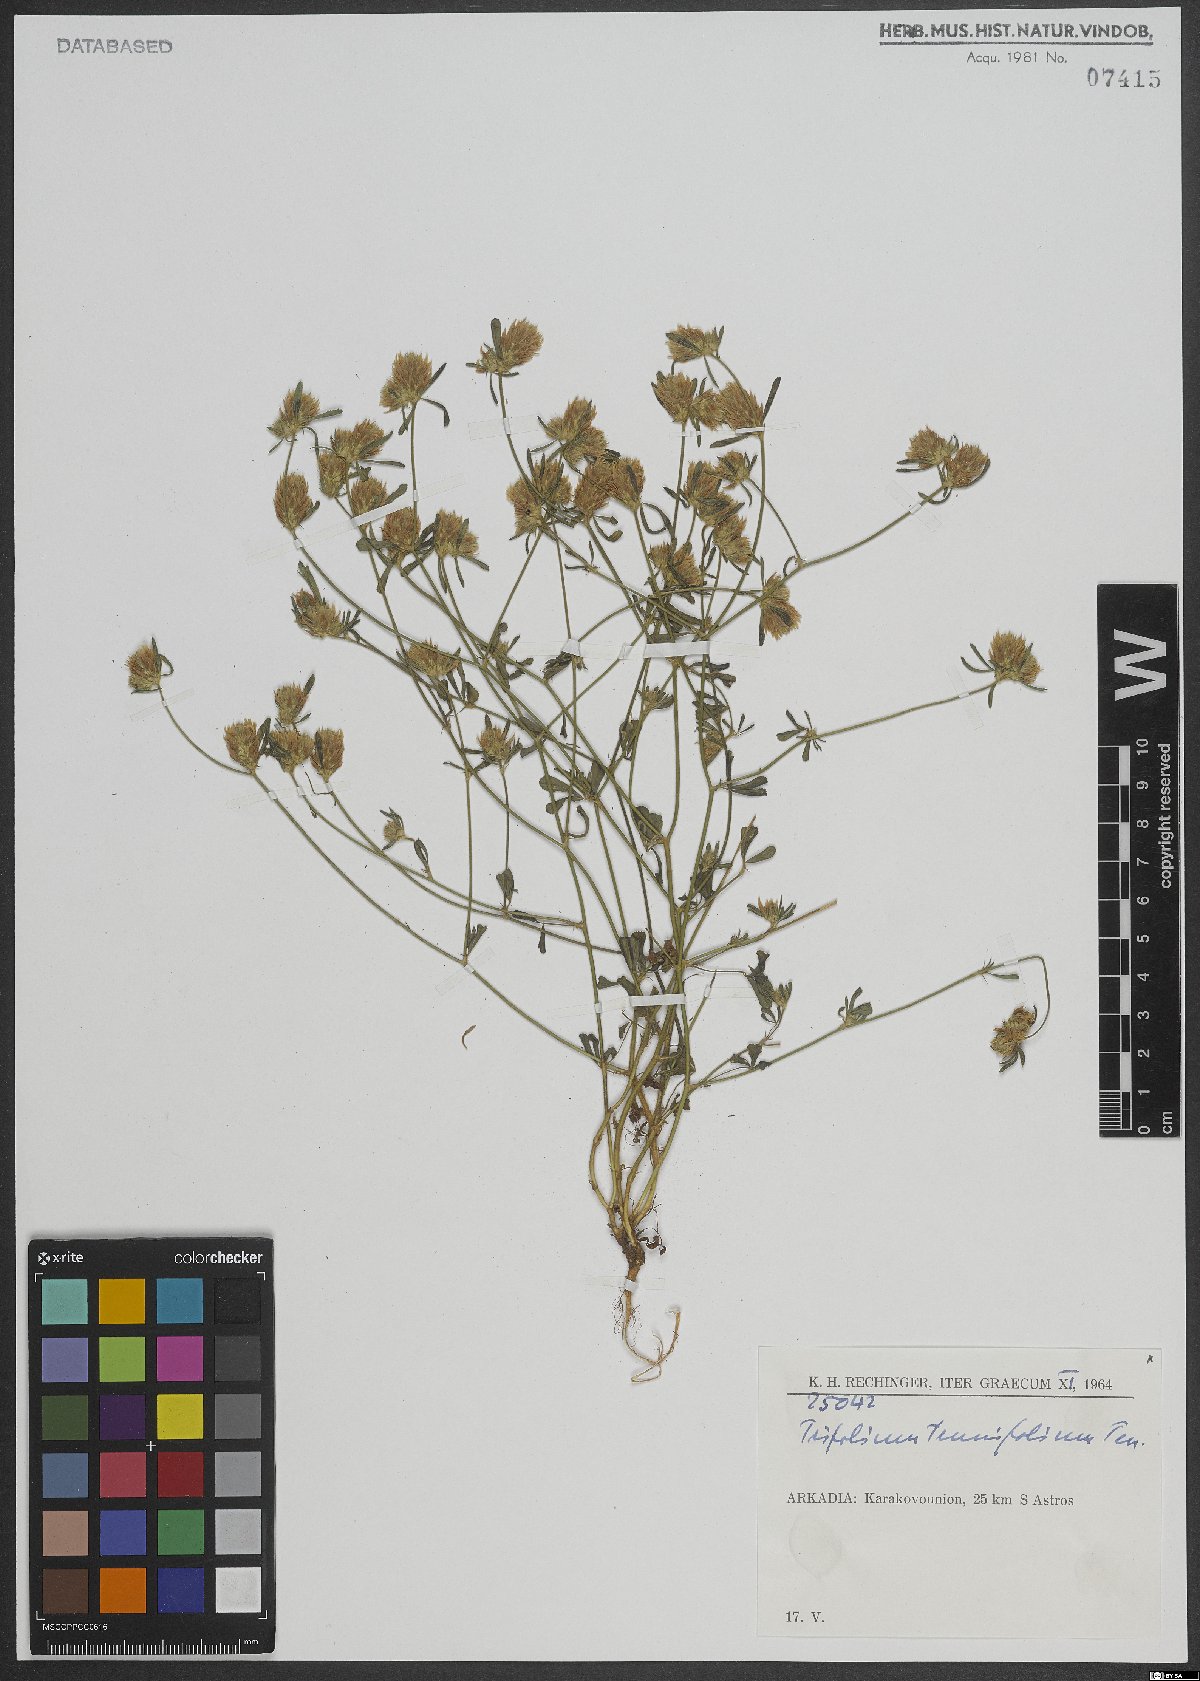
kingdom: Plantae
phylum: Tracheophyta
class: Magnoliopsida
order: Fabales
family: Fabaceae
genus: Trifolium
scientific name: Trifolium tenuifolium
